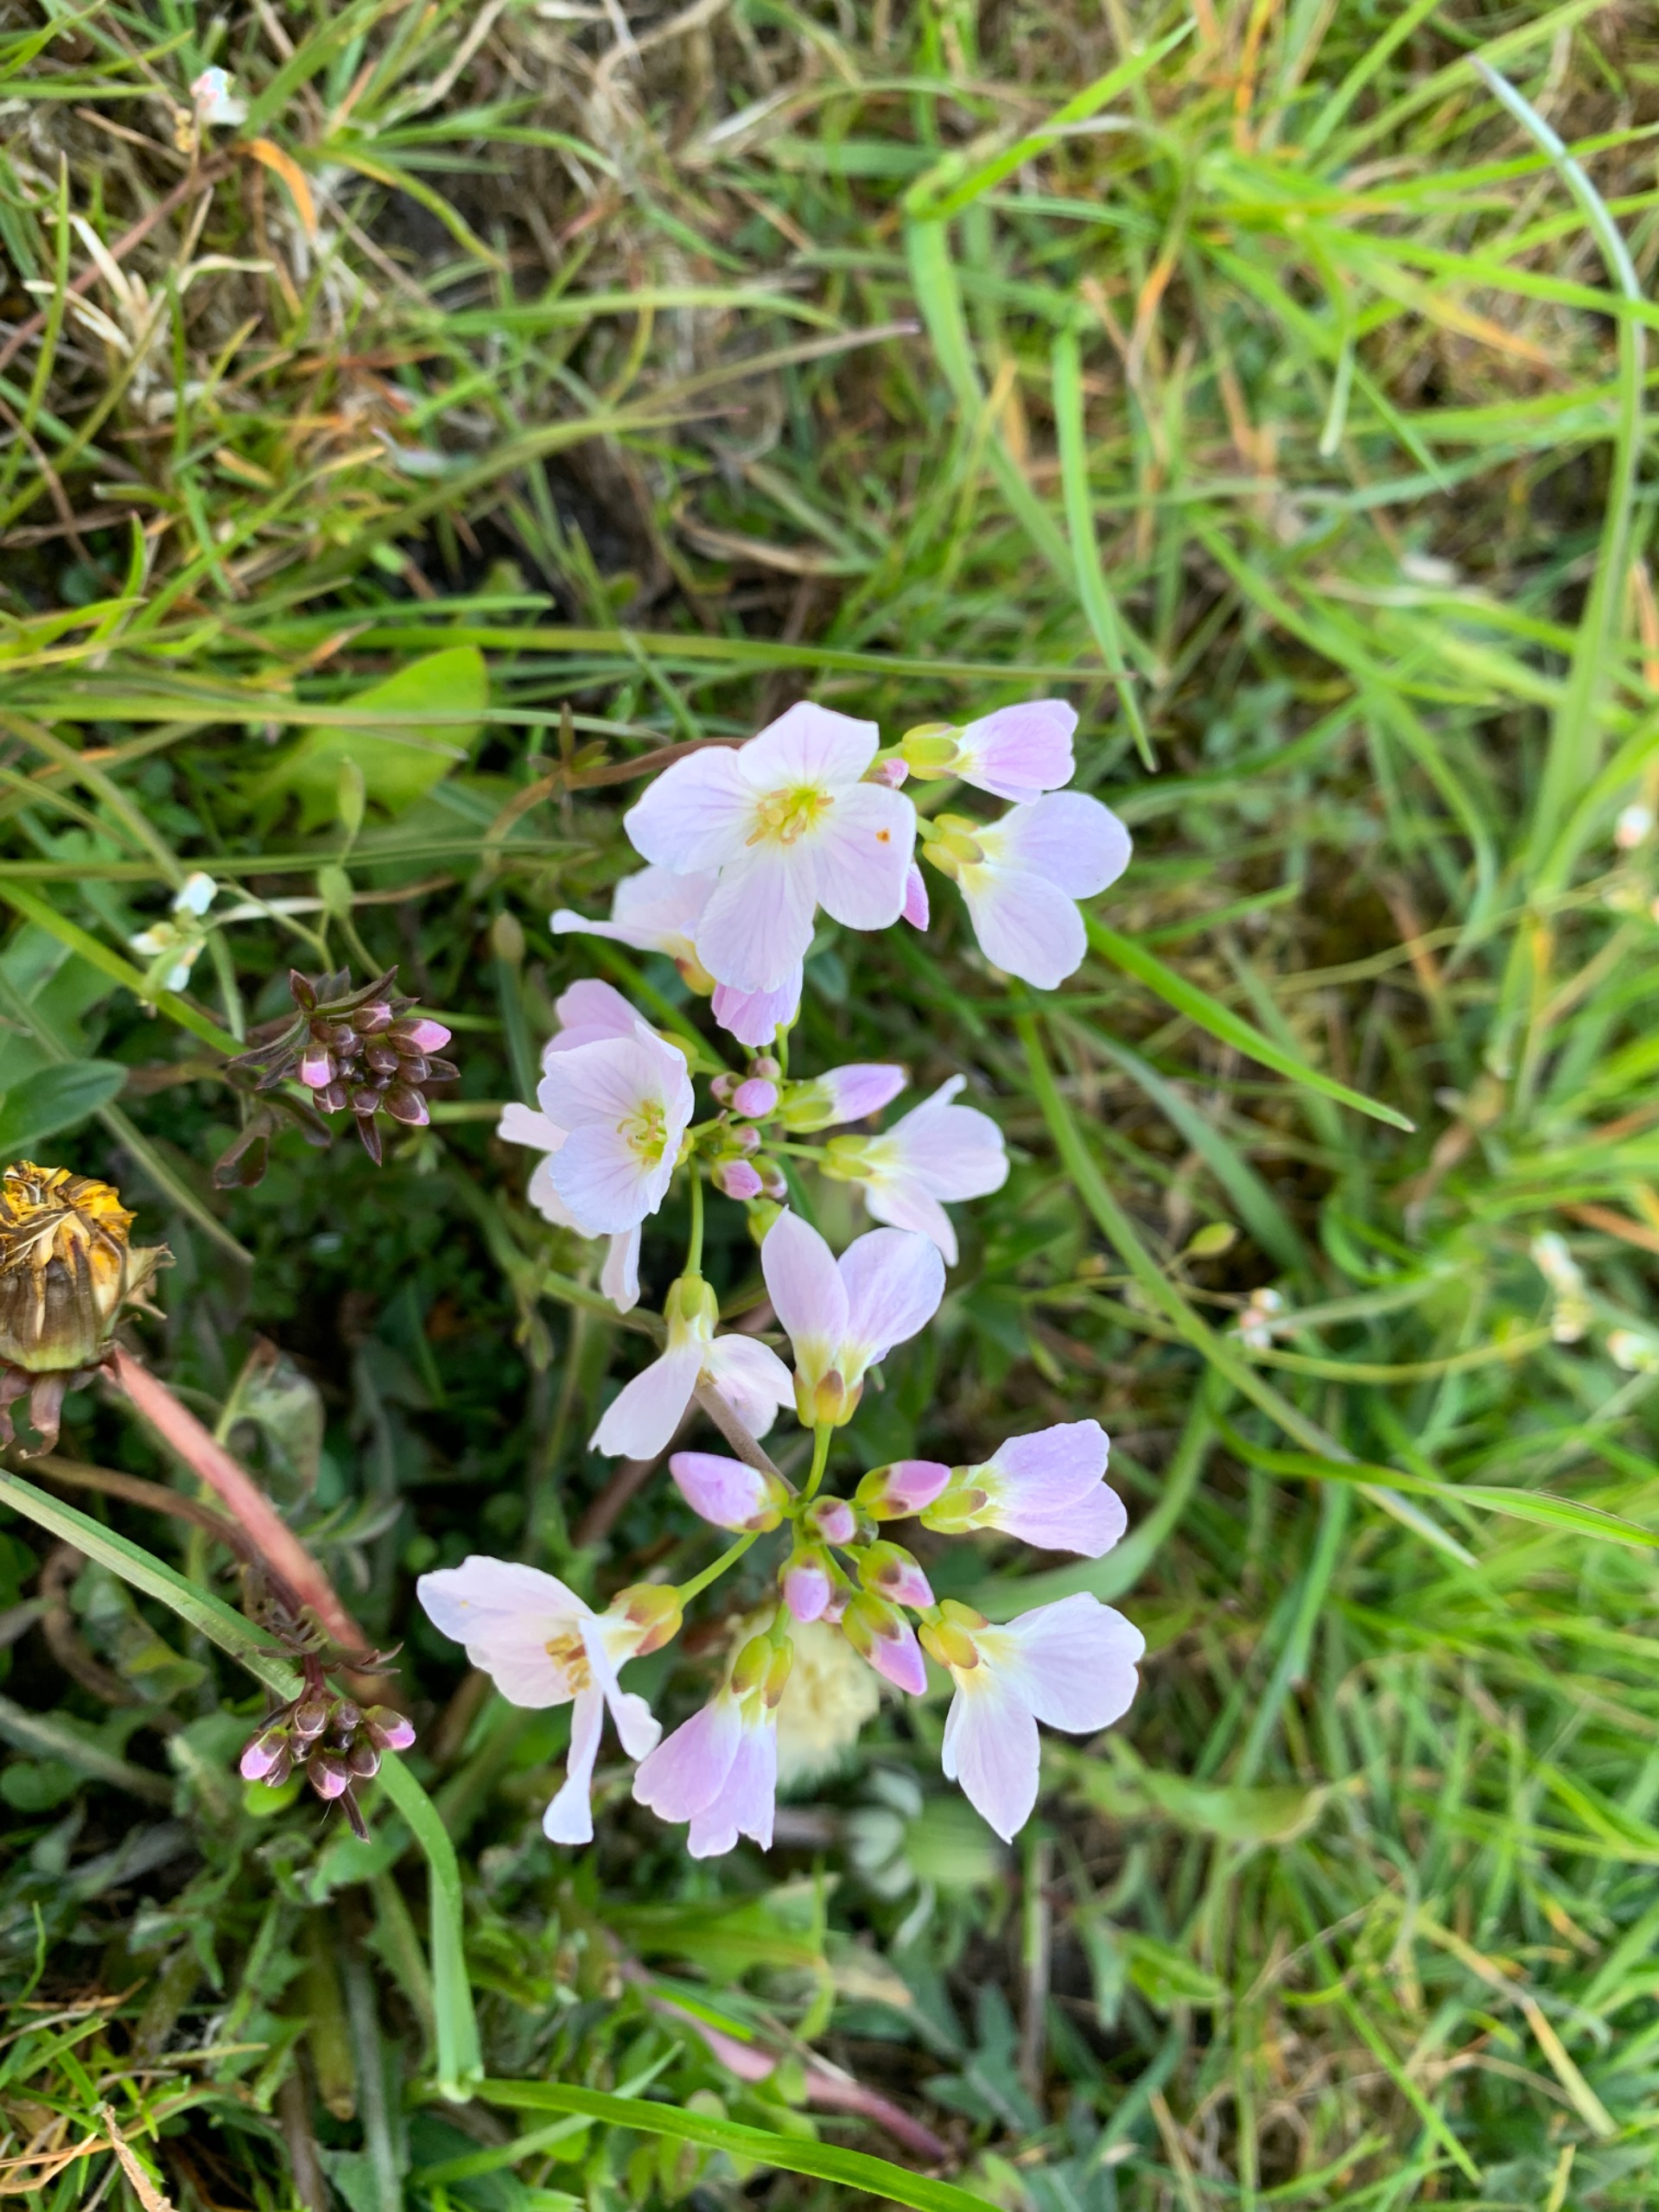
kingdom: Plantae
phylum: Tracheophyta
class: Magnoliopsida
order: Brassicales
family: Brassicaceae
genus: Cardamine
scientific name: Cardamine pratensis
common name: Engkarse
